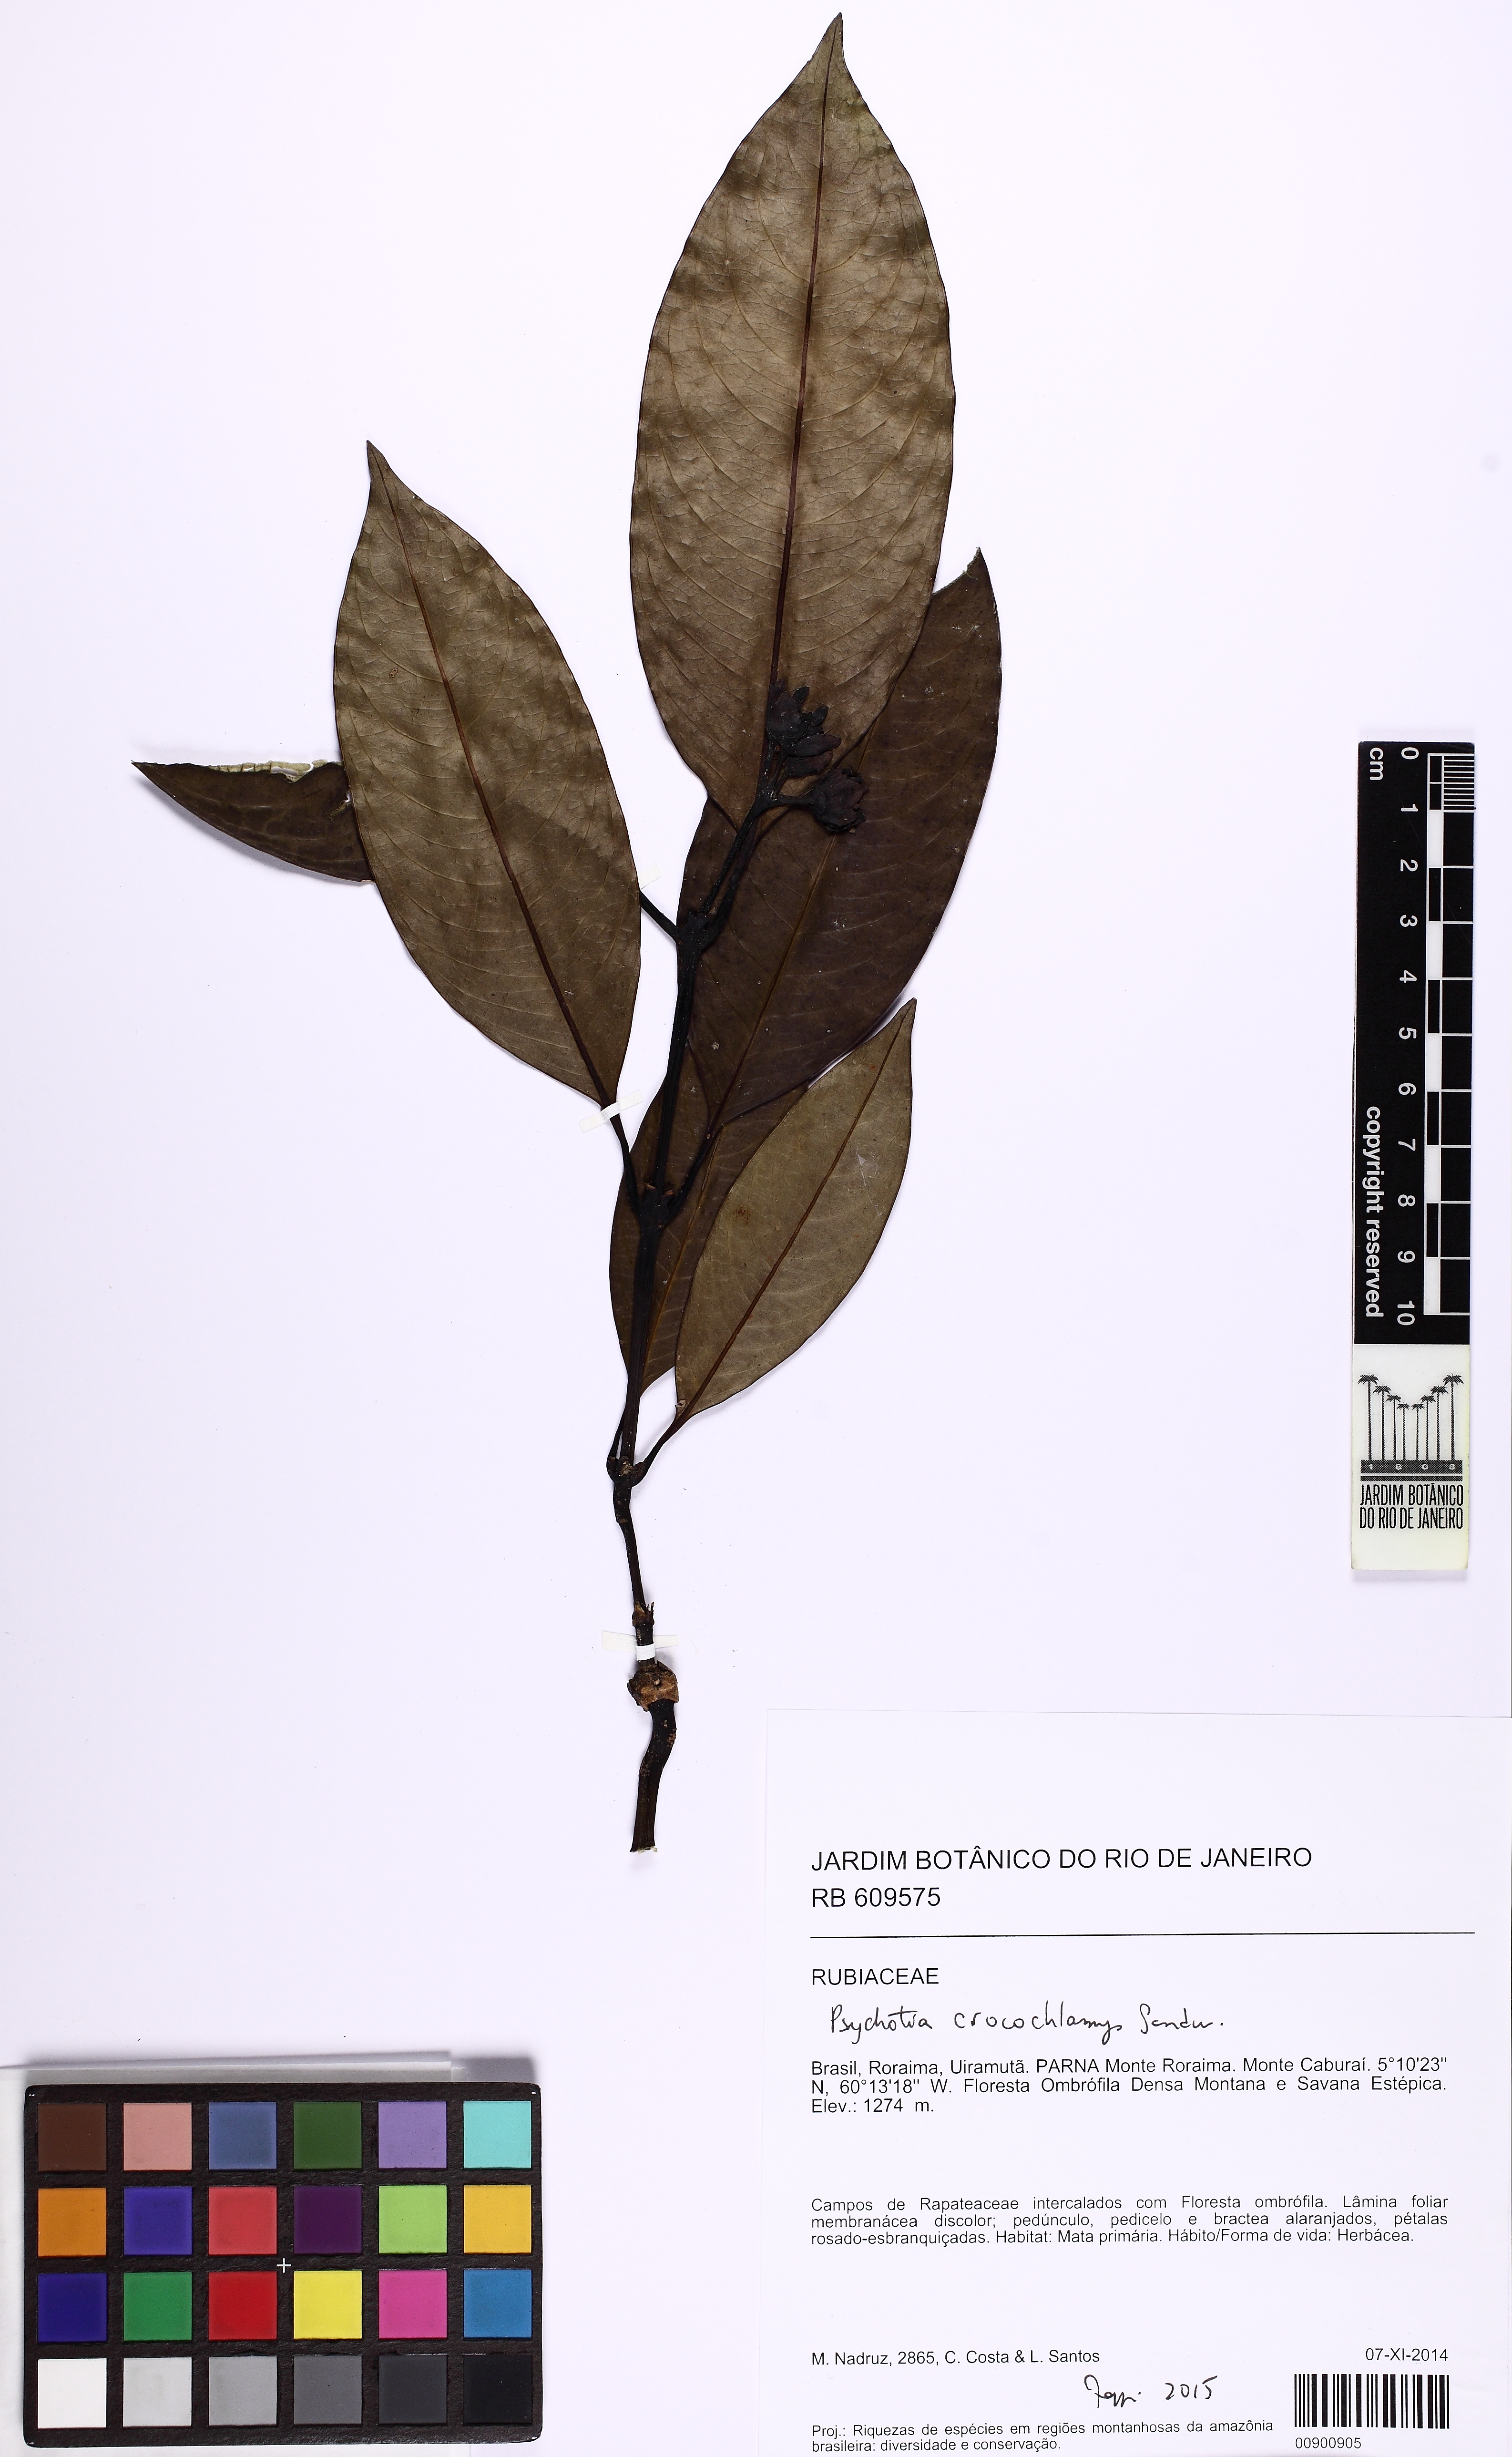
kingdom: Plantae
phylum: Tracheophyta
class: Magnoliopsida
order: Gentianales
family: Rubiaceae
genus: Palicourea
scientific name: Palicourea crocochlamys
